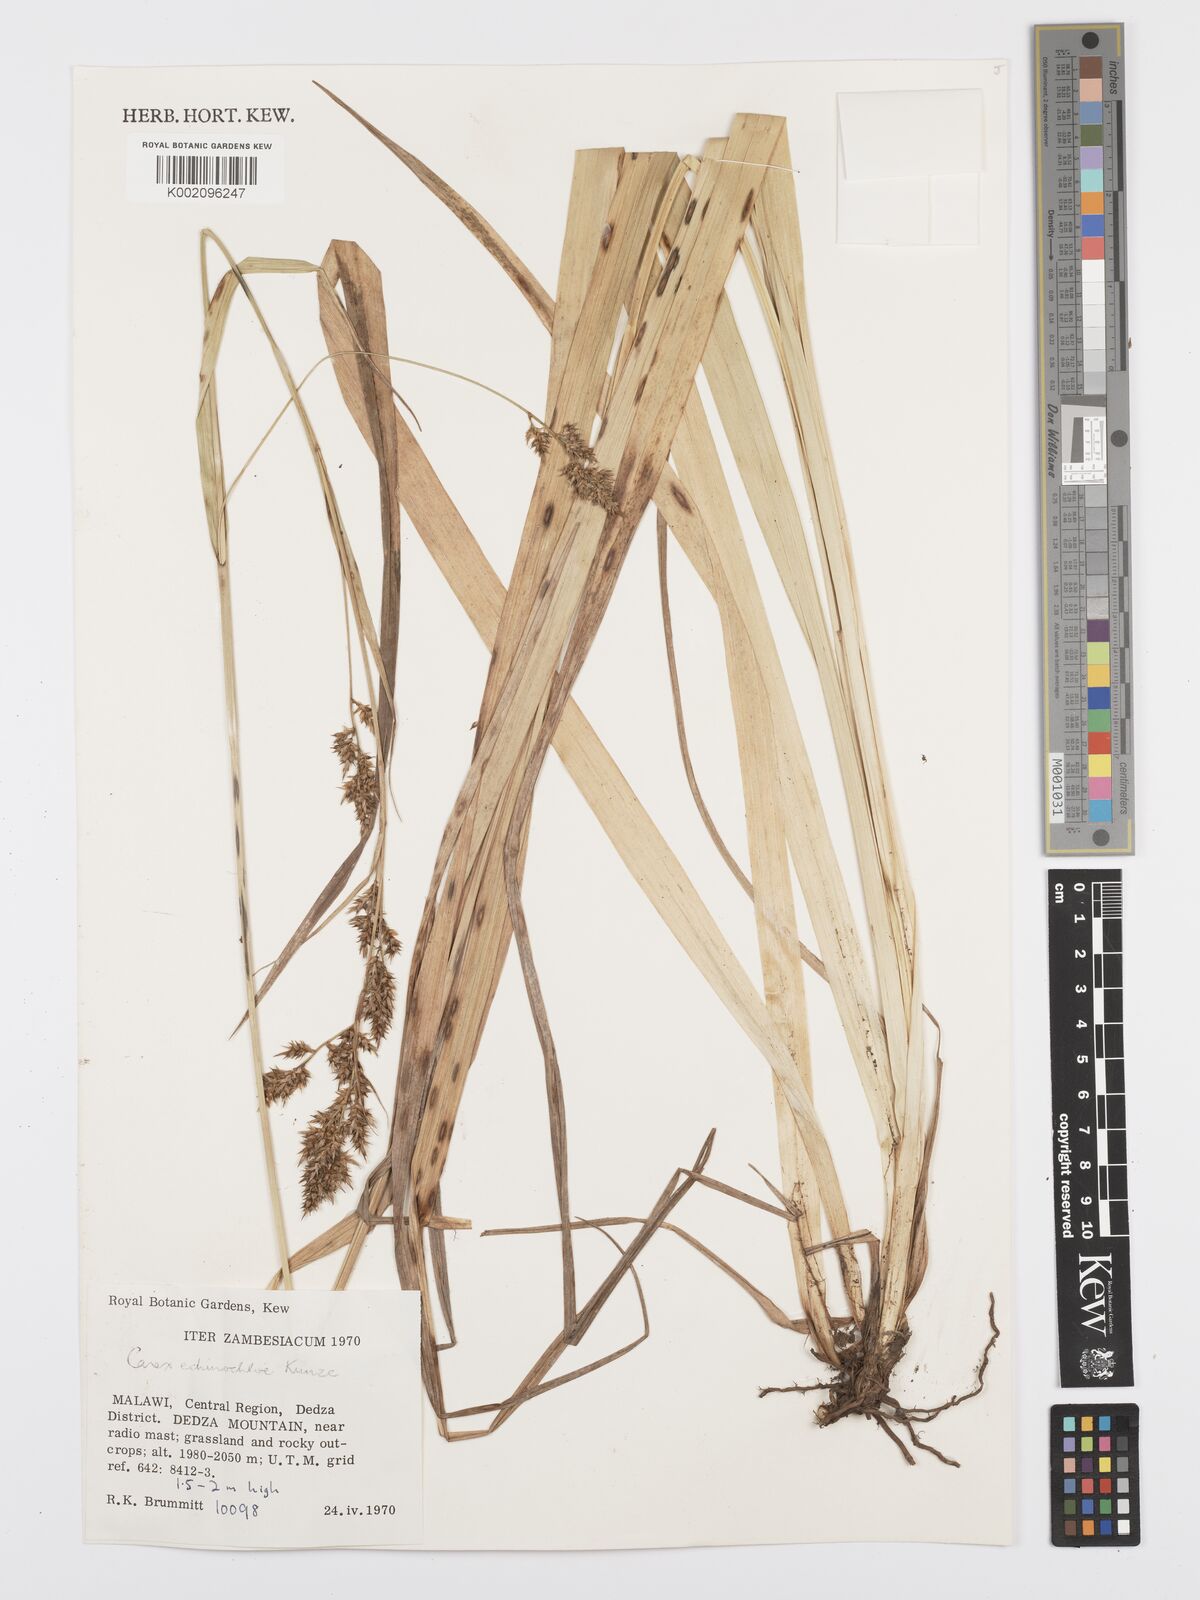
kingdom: Plantae
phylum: Tracheophyta
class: Liliopsida
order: Poales
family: Cyperaceae
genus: Carex
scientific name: Carex echinochloe
